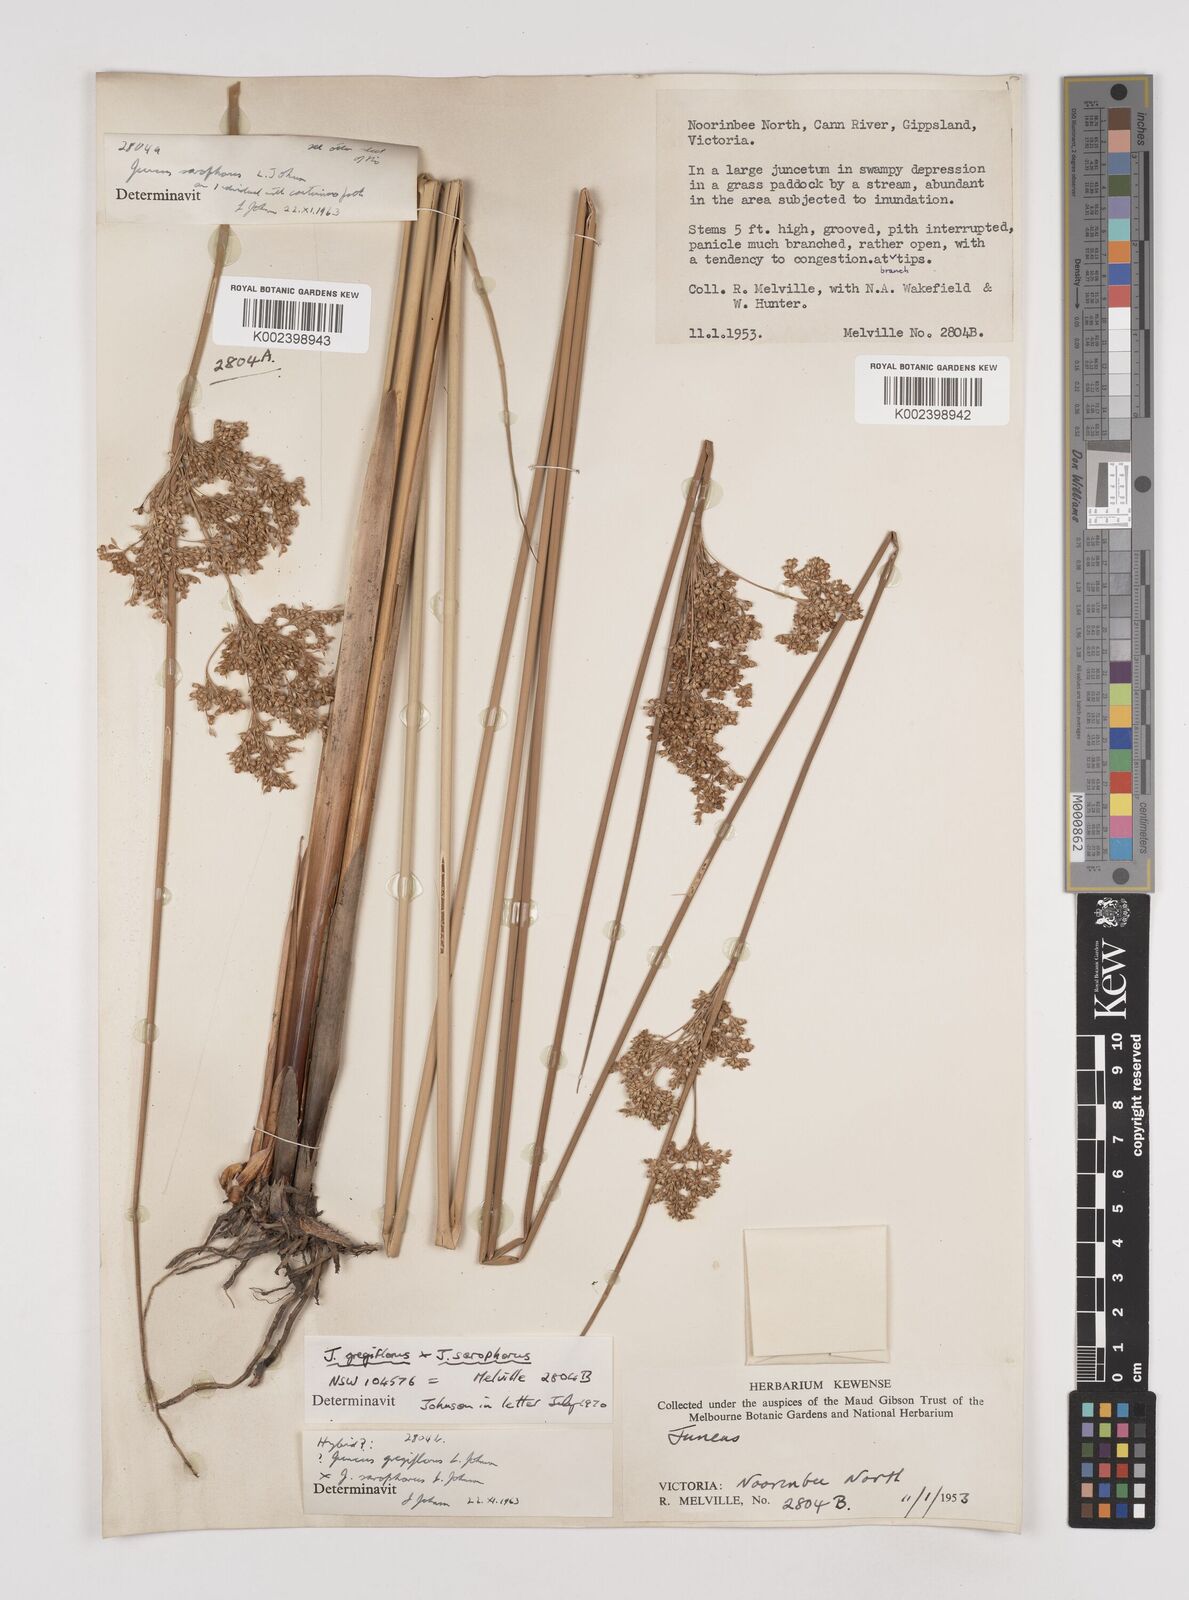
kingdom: Plantae
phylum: Tracheophyta
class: Liliopsida
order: Poales
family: Juncaceae
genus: Juncus
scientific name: Juncus gregiflorus
